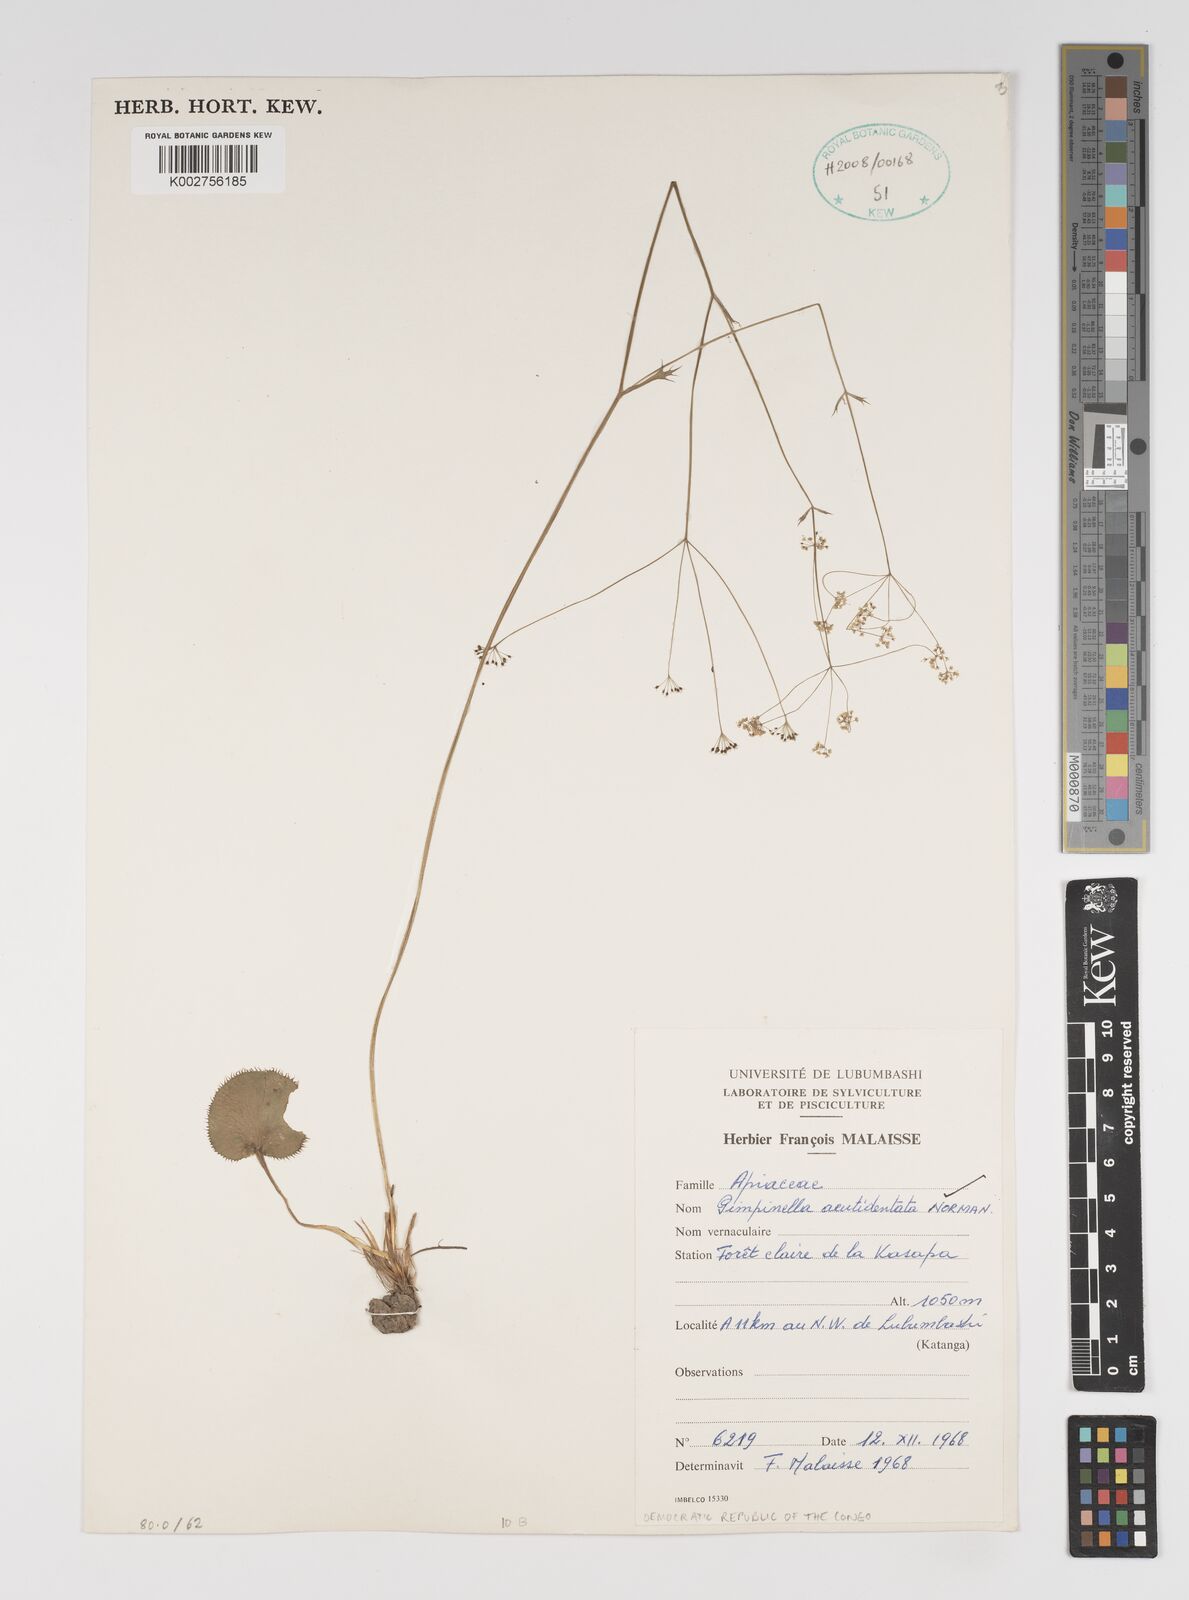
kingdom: Plantae
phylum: Tracheophyta
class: Magnoliopsida
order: Apiales
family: Apiaceae
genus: Pimpinella
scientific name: Pimpinella acutidentata
